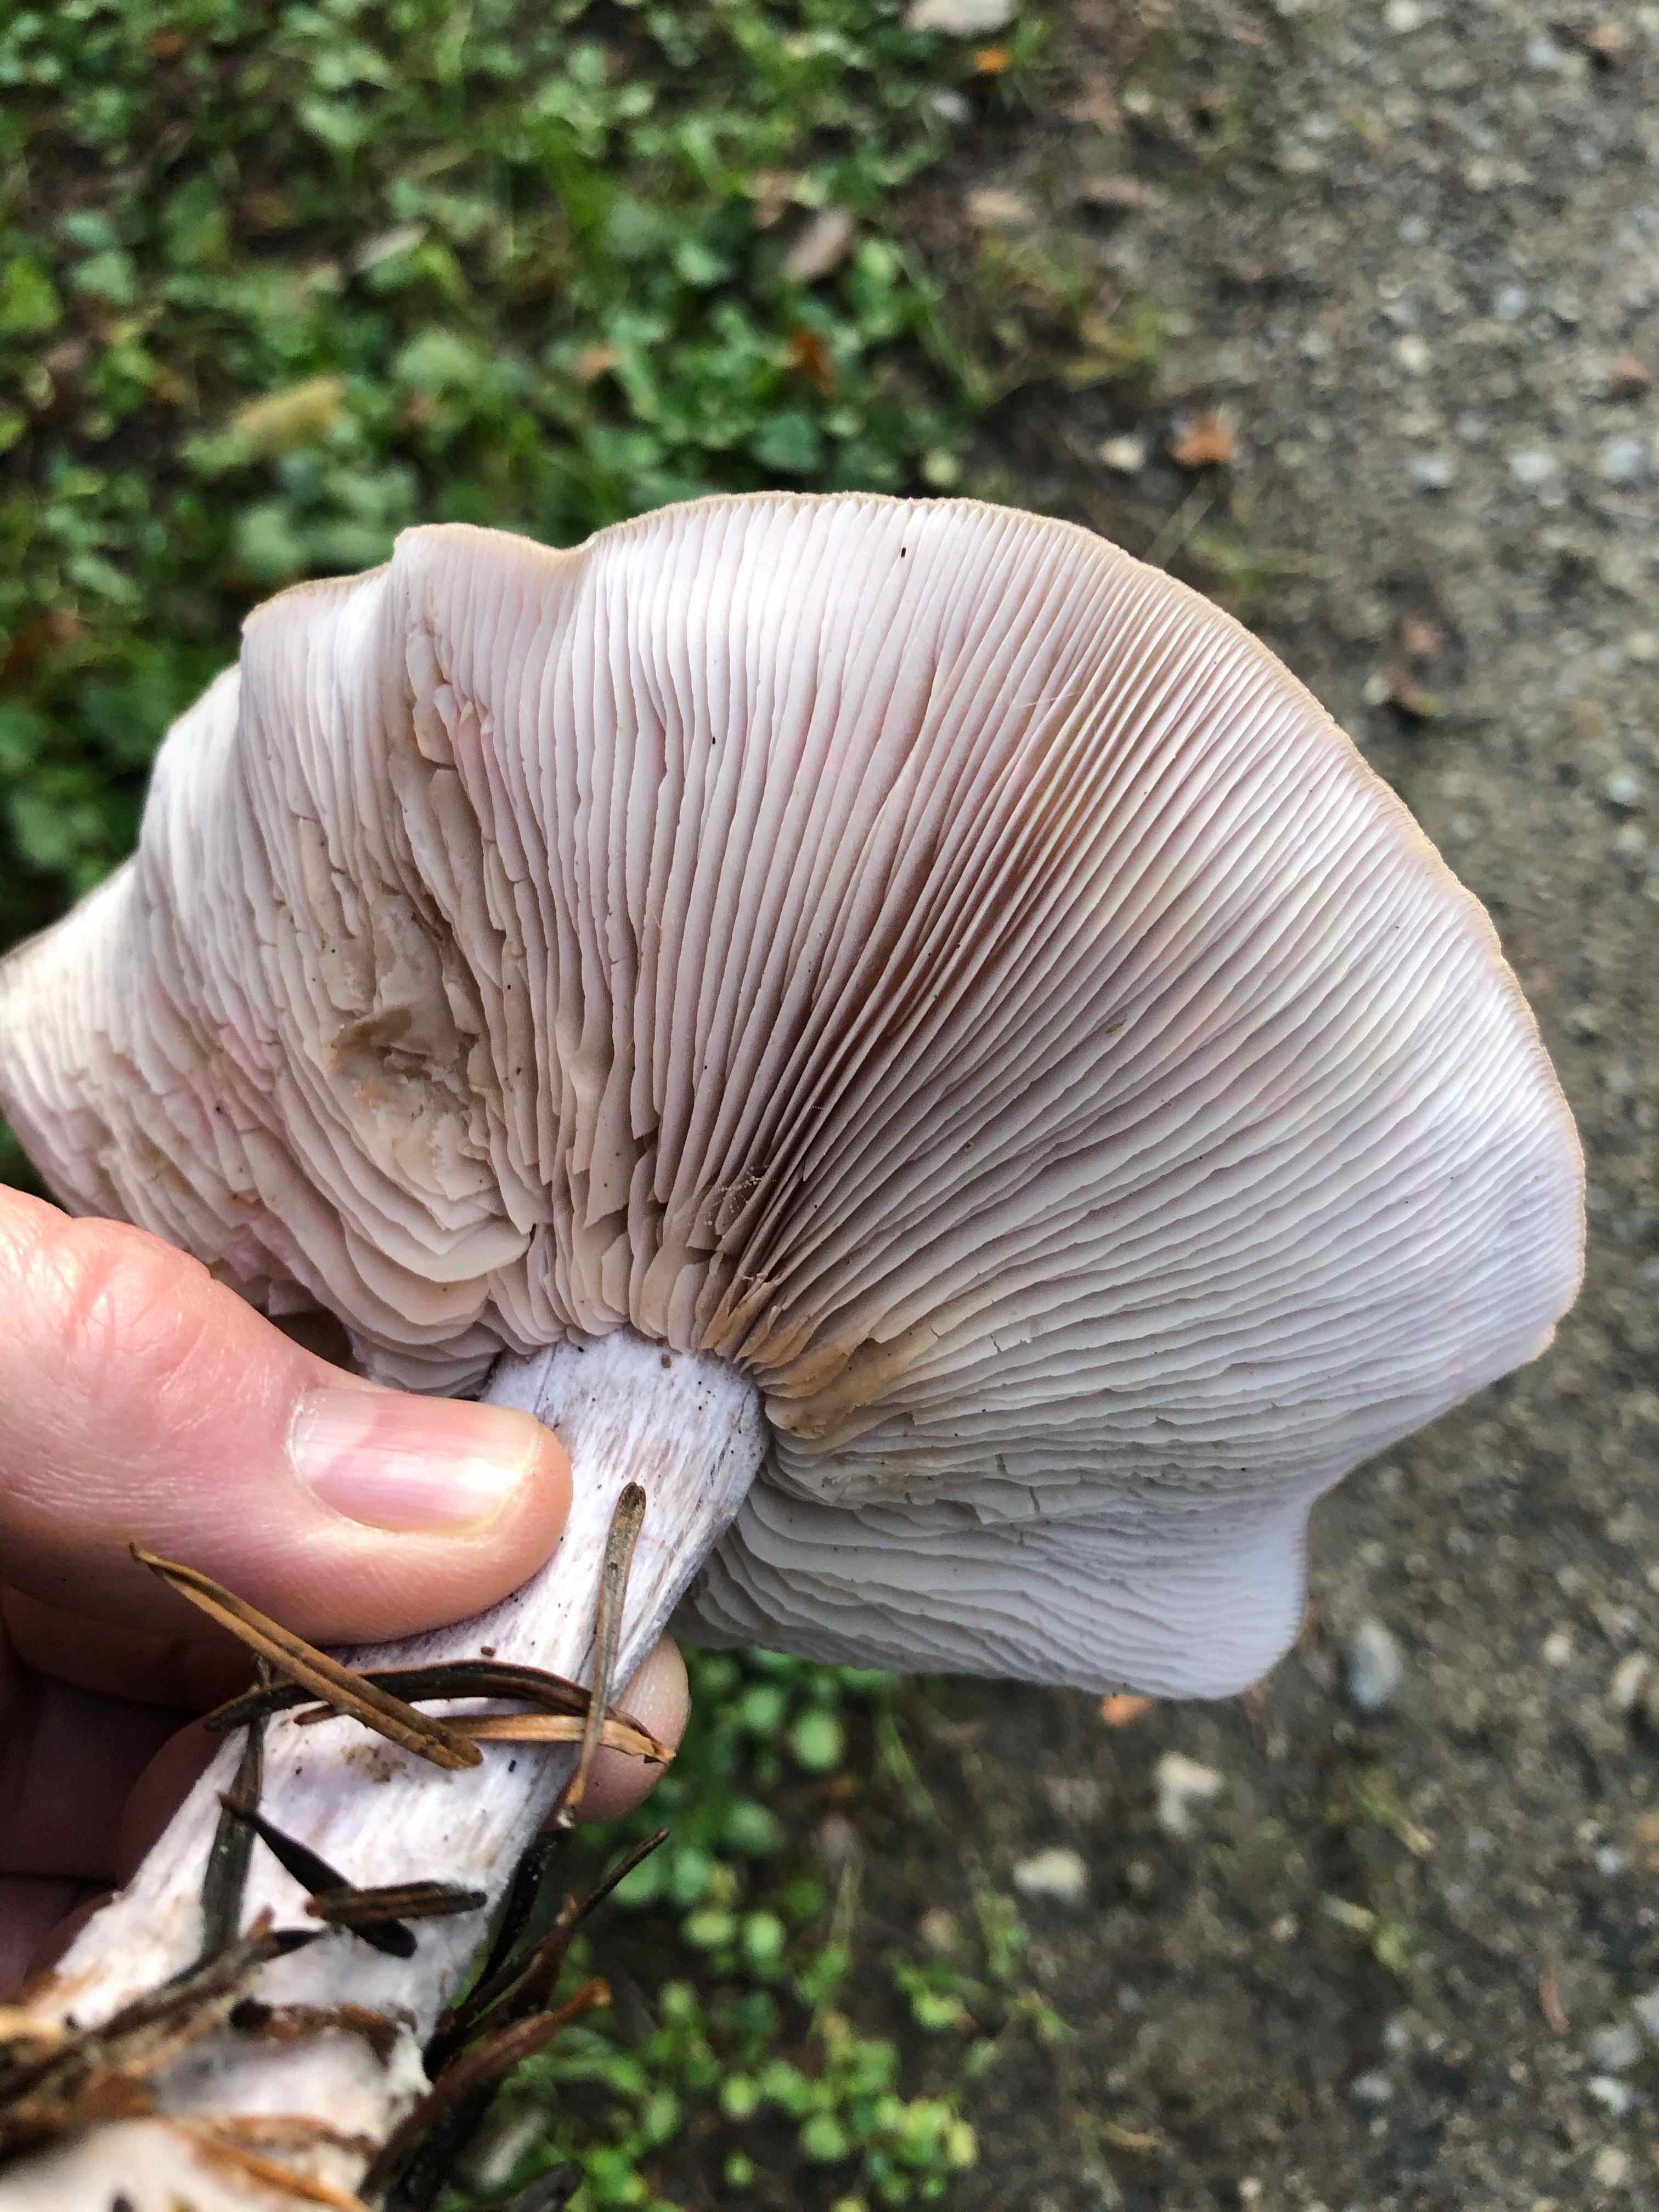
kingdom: Fungi
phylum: Basidiomycota
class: Agaricomycetes
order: Agaricales
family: Tricholomataceae
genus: Lepista
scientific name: Lepista nuda
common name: violet hekseringshat
